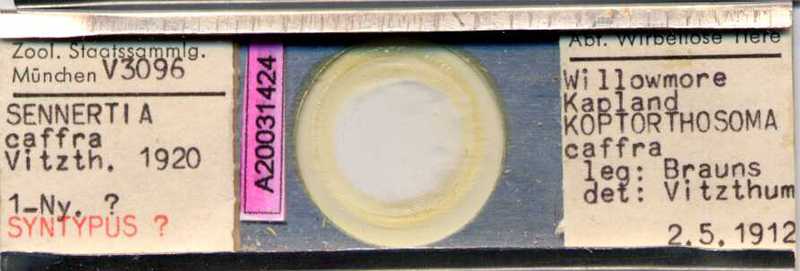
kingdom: Animalia
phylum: Arthropoda
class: Arachnida
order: Sarcoptiformes
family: Chaetodactylidae
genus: Sennertia
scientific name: Sennertia caffra
